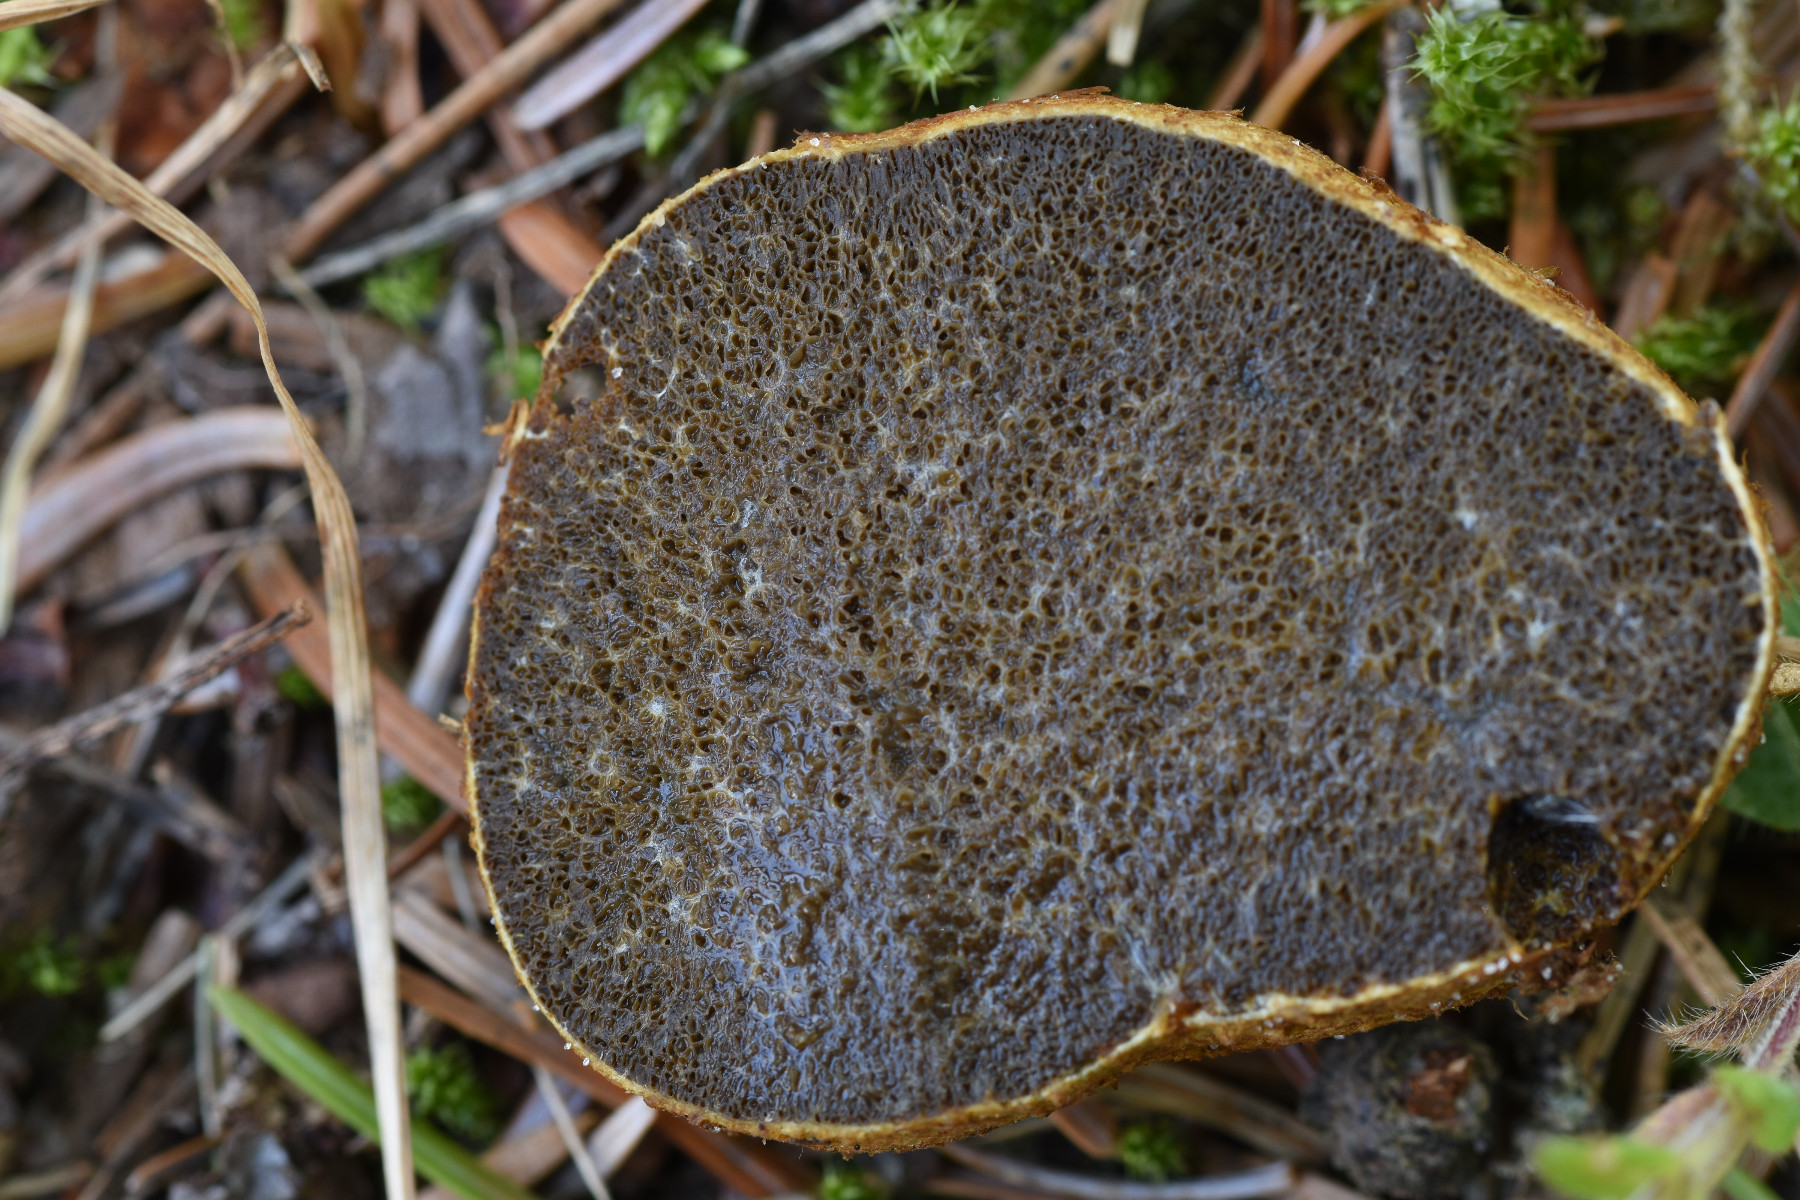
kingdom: Fungi
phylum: Basidiomycota
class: Agaricomycetes
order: Boletales
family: Rhizopogonaceae
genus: Rhizopogon
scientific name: Rhizopogon obtextus
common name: gul skægtrøffel
